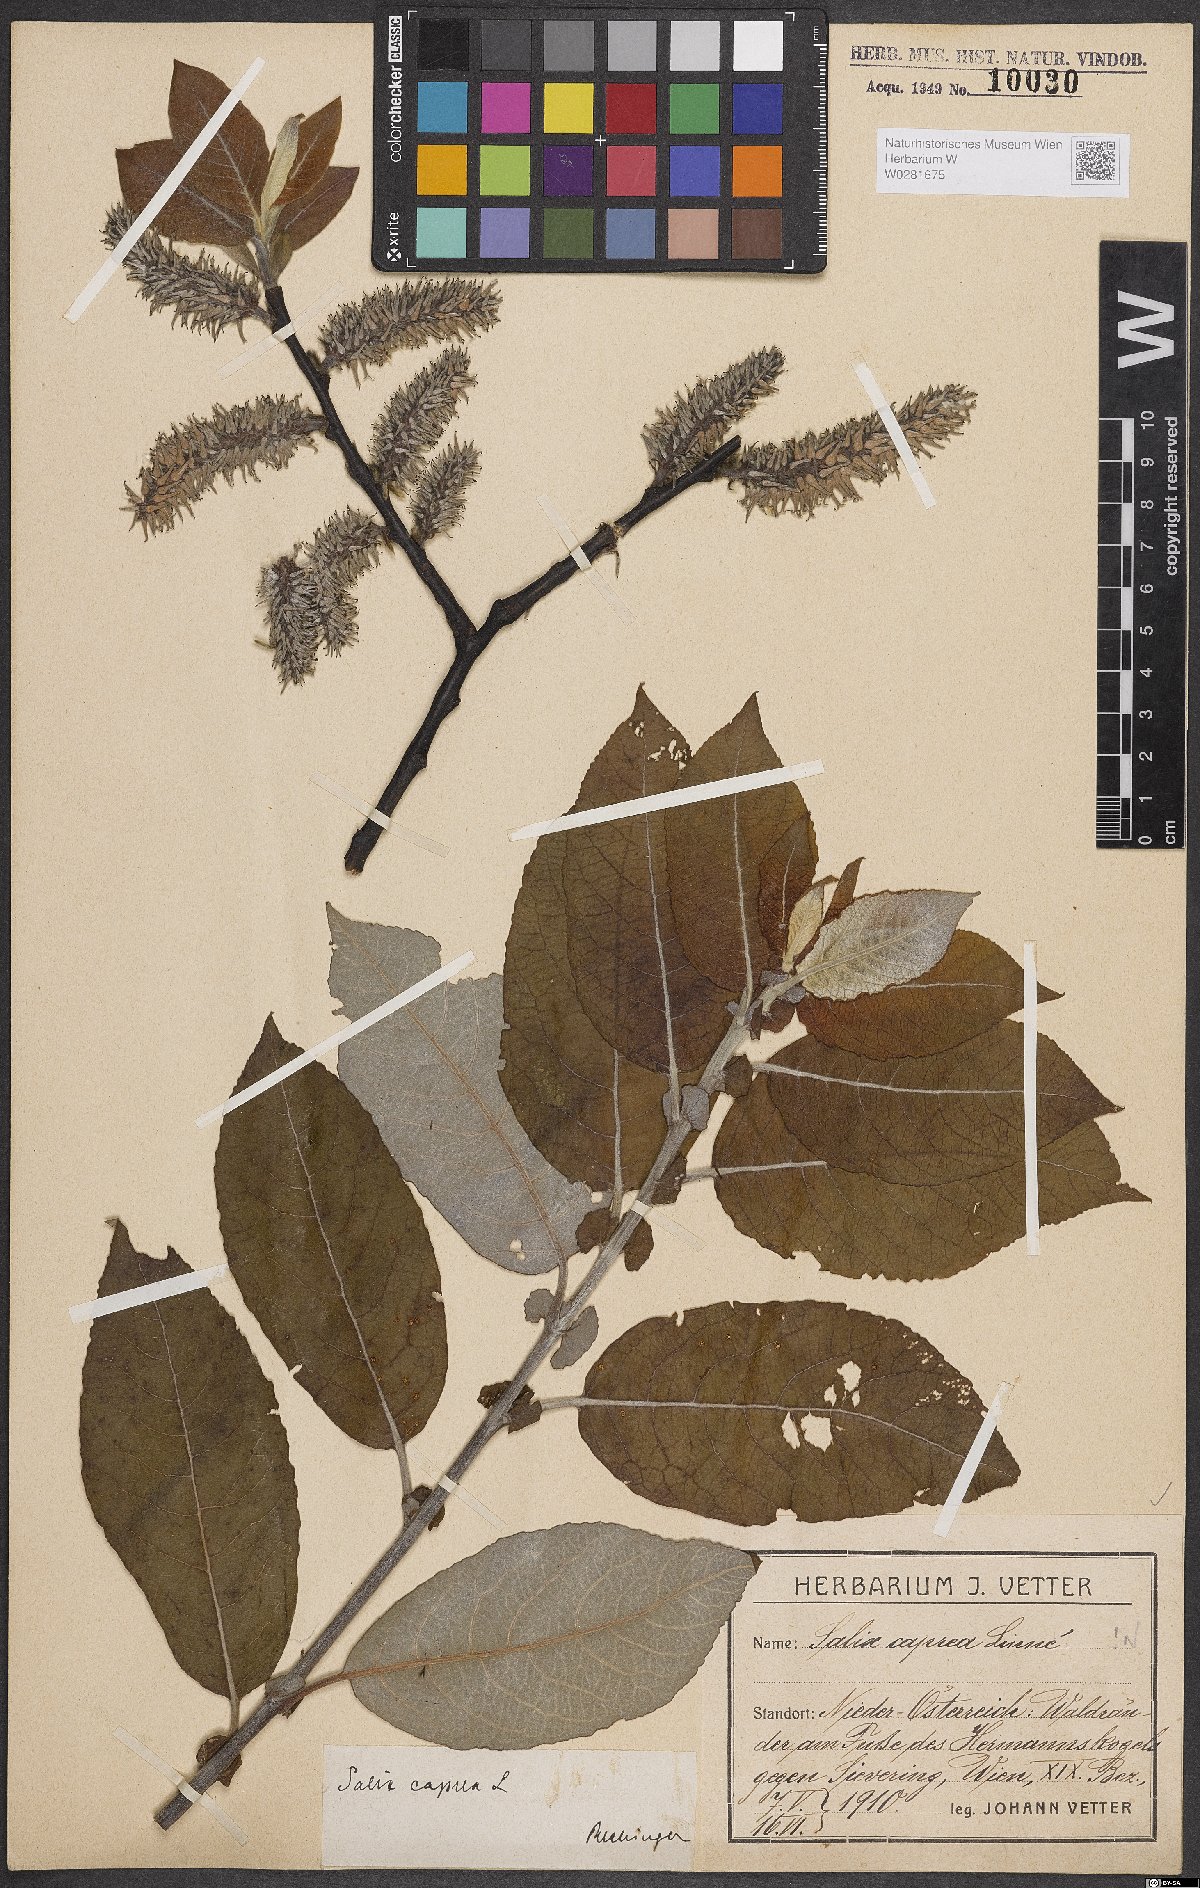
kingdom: Plantae
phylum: Tracheophyta
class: Magnoliopsida
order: Malpighiales
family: Salicaceae
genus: Salix
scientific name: Salix caprea
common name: Goat willow
